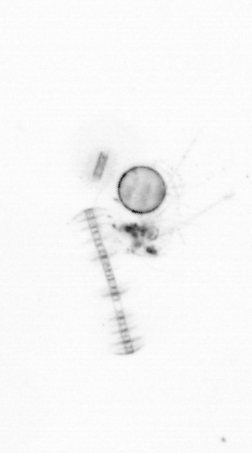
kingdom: Chromista
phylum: Ochrophyta
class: Bacillariophyceae
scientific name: Bacillariophyceae
